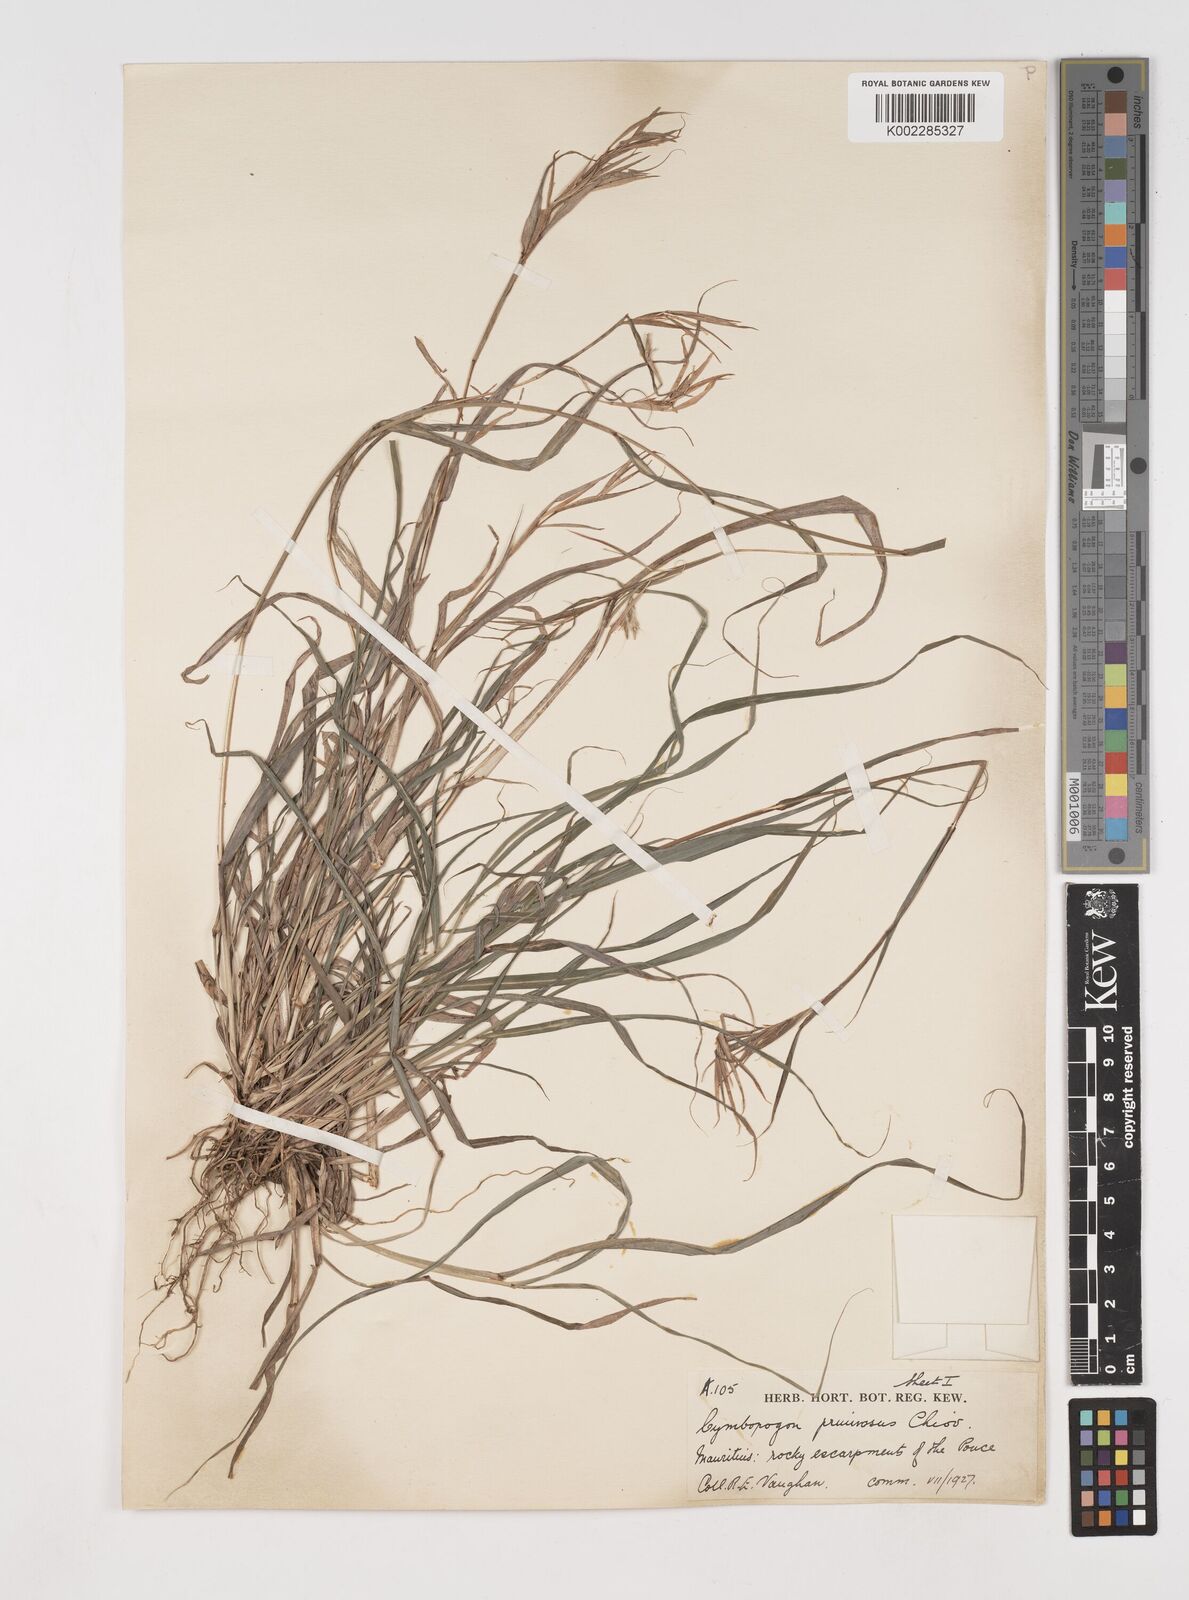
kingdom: Plantae
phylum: Tracheophyta
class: Liliopsida
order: Poales
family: Poaceae
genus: Cymbopogon
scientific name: Cymbopogon pruinosus
